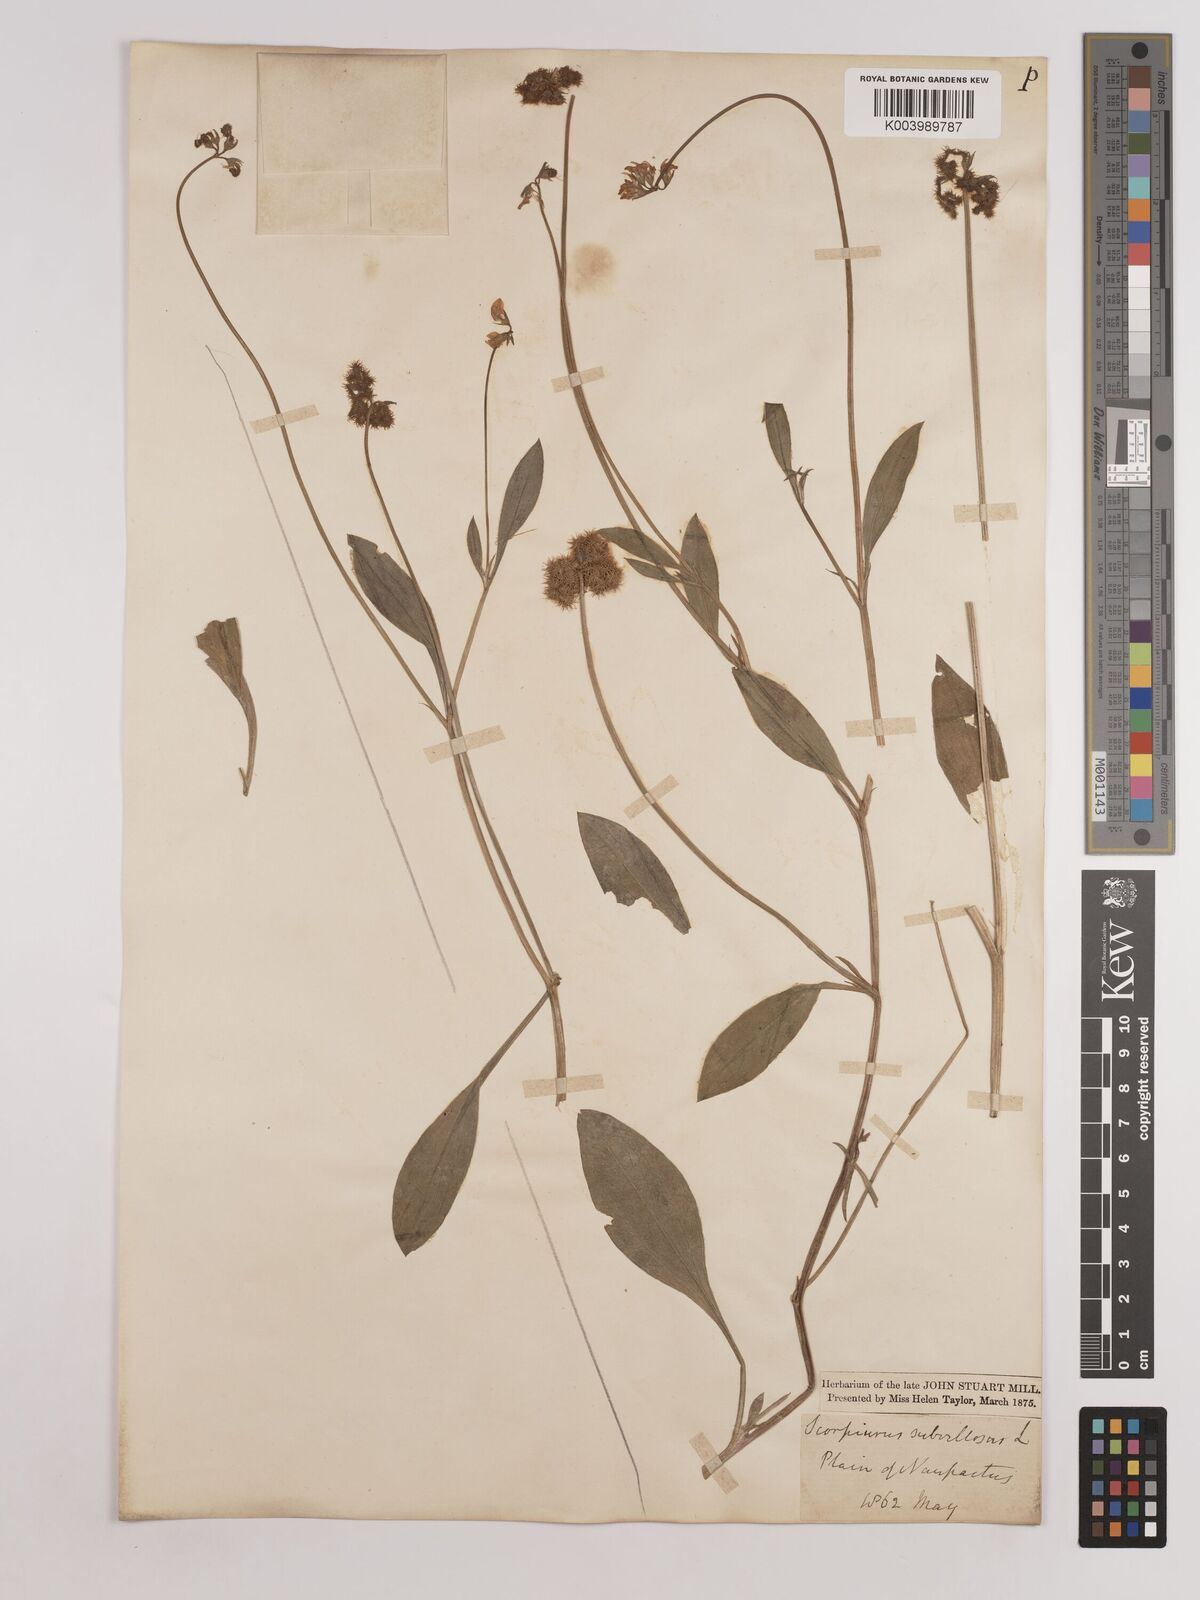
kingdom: Plantae
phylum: Tracheophyta
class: Magnoliopsida
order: Fabales
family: Fabaceae
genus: Scorpiurus
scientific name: Scorpiurus muricatus
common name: Caterpillar-plant
